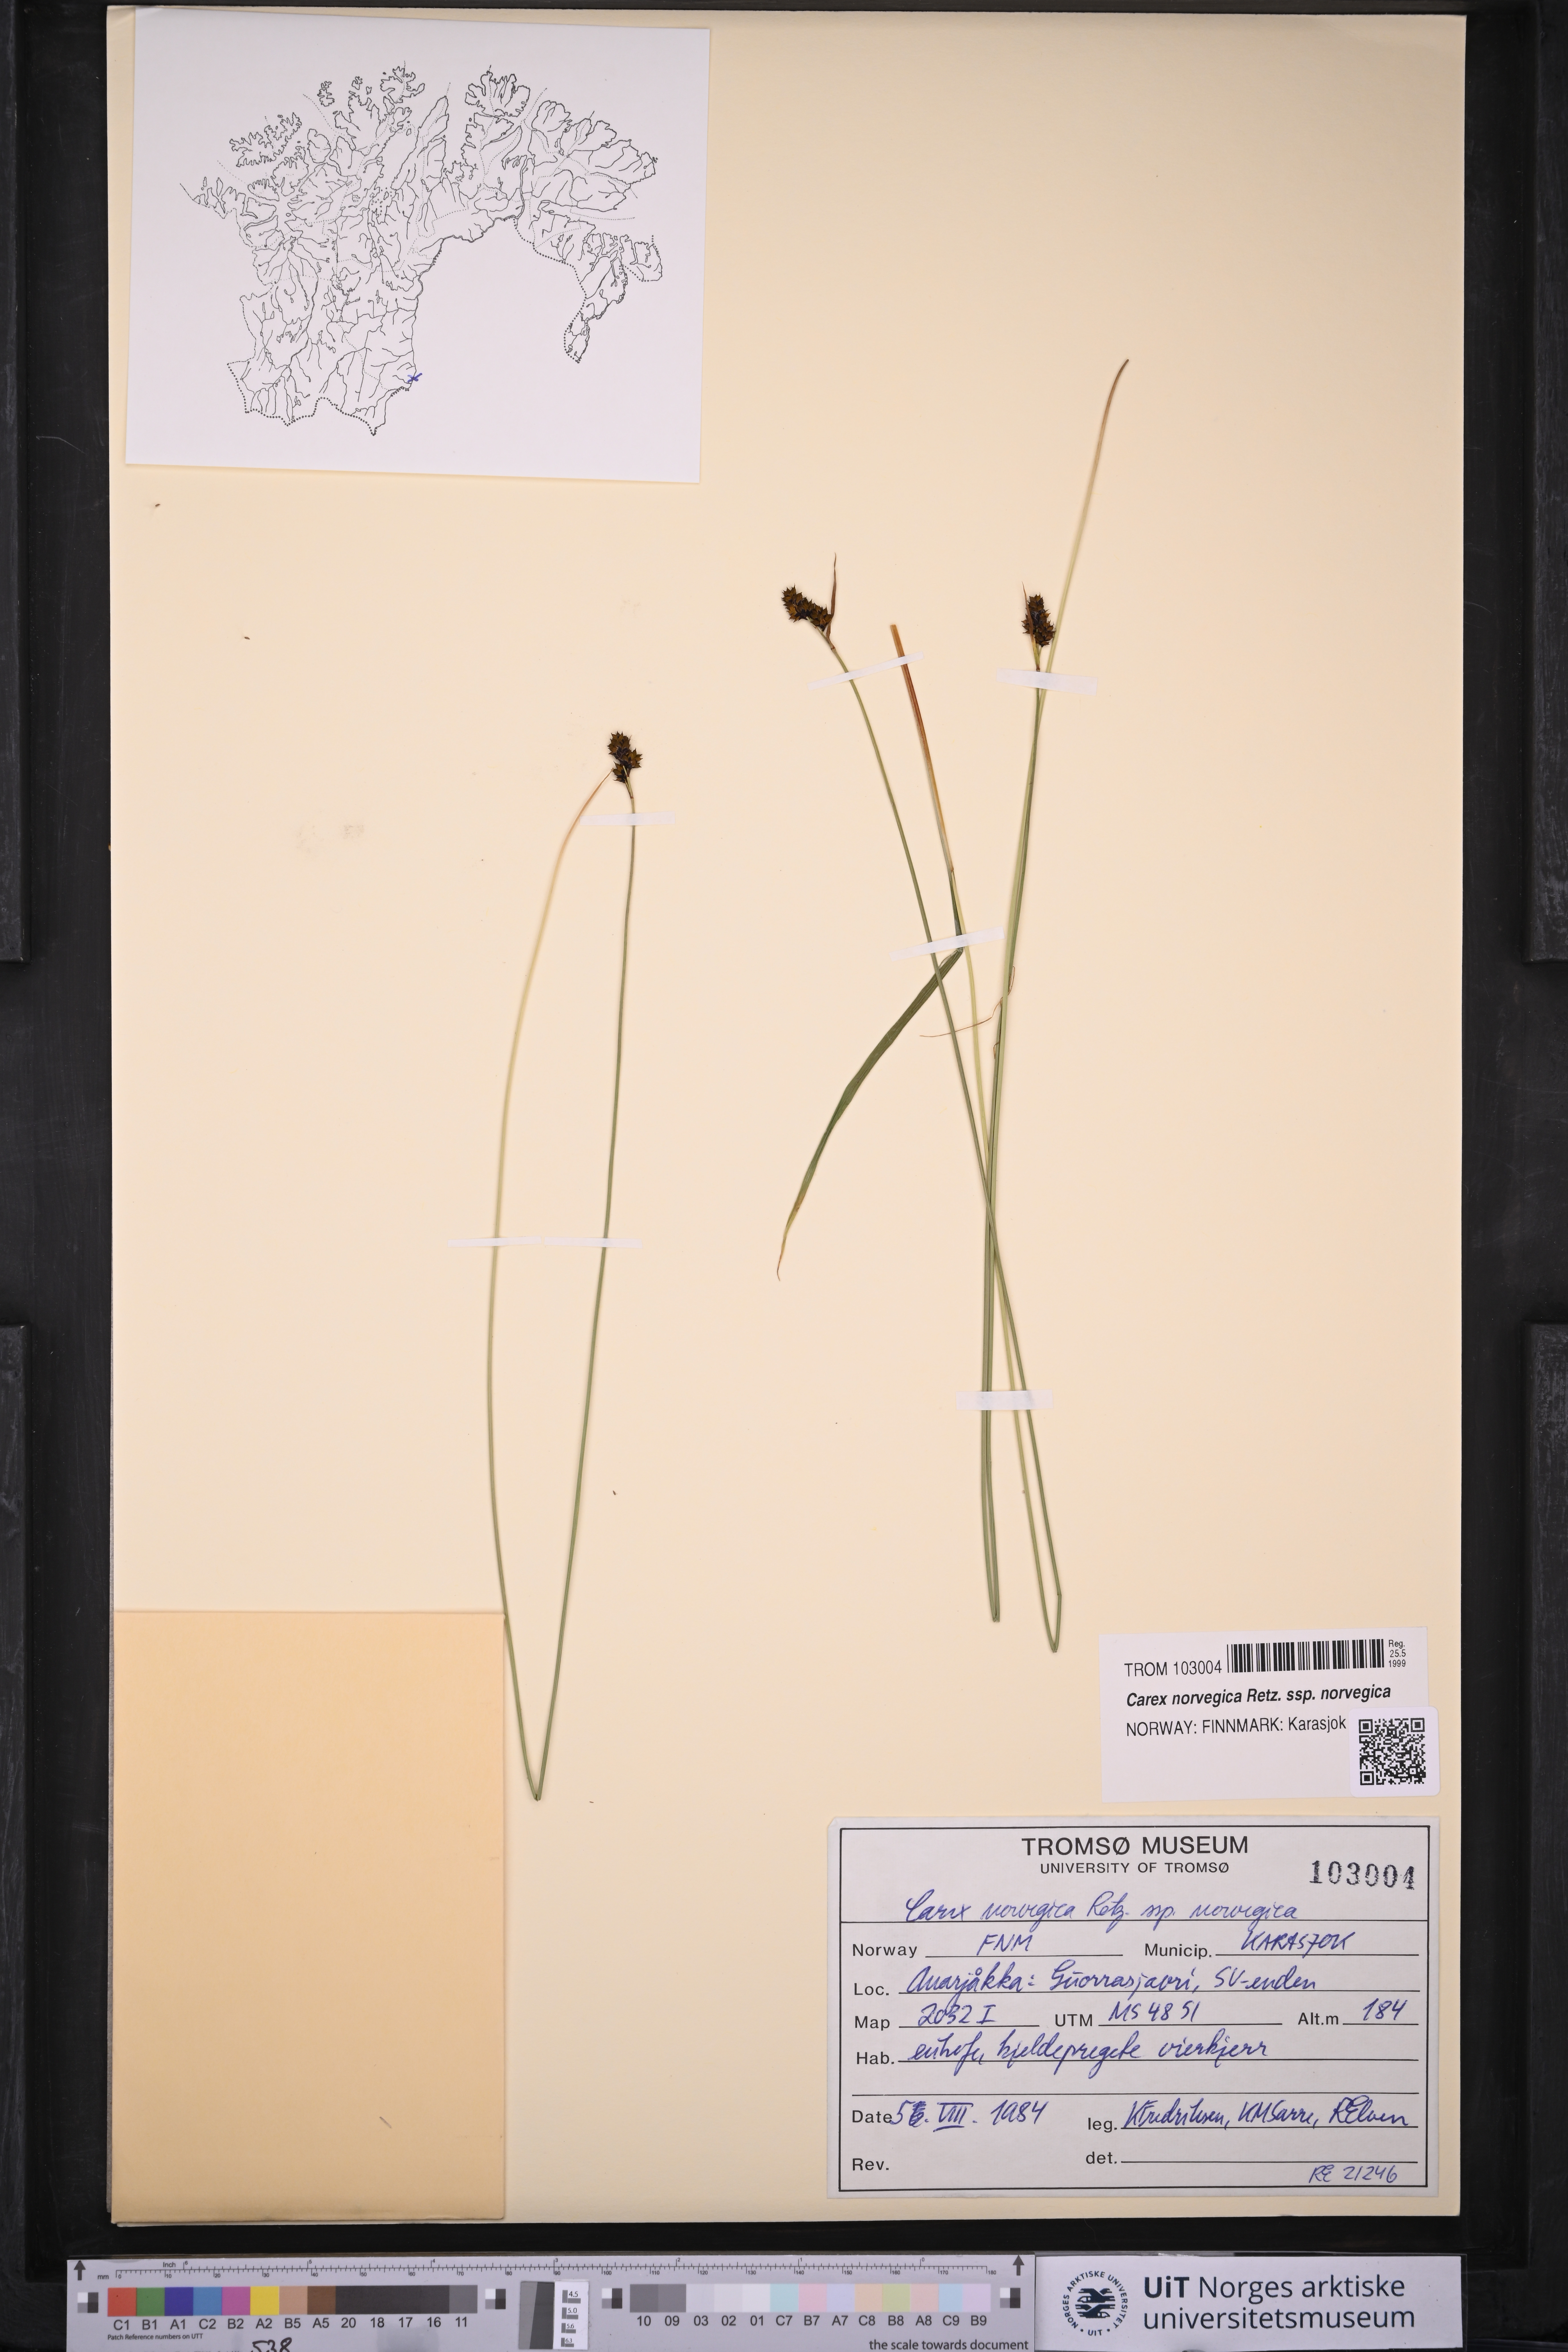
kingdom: Plantae
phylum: Tracheophyta
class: Liliopsida
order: Poales
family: Cyperaceae
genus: Carex
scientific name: Carex norvegica
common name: Close-headed alpine-sedge
